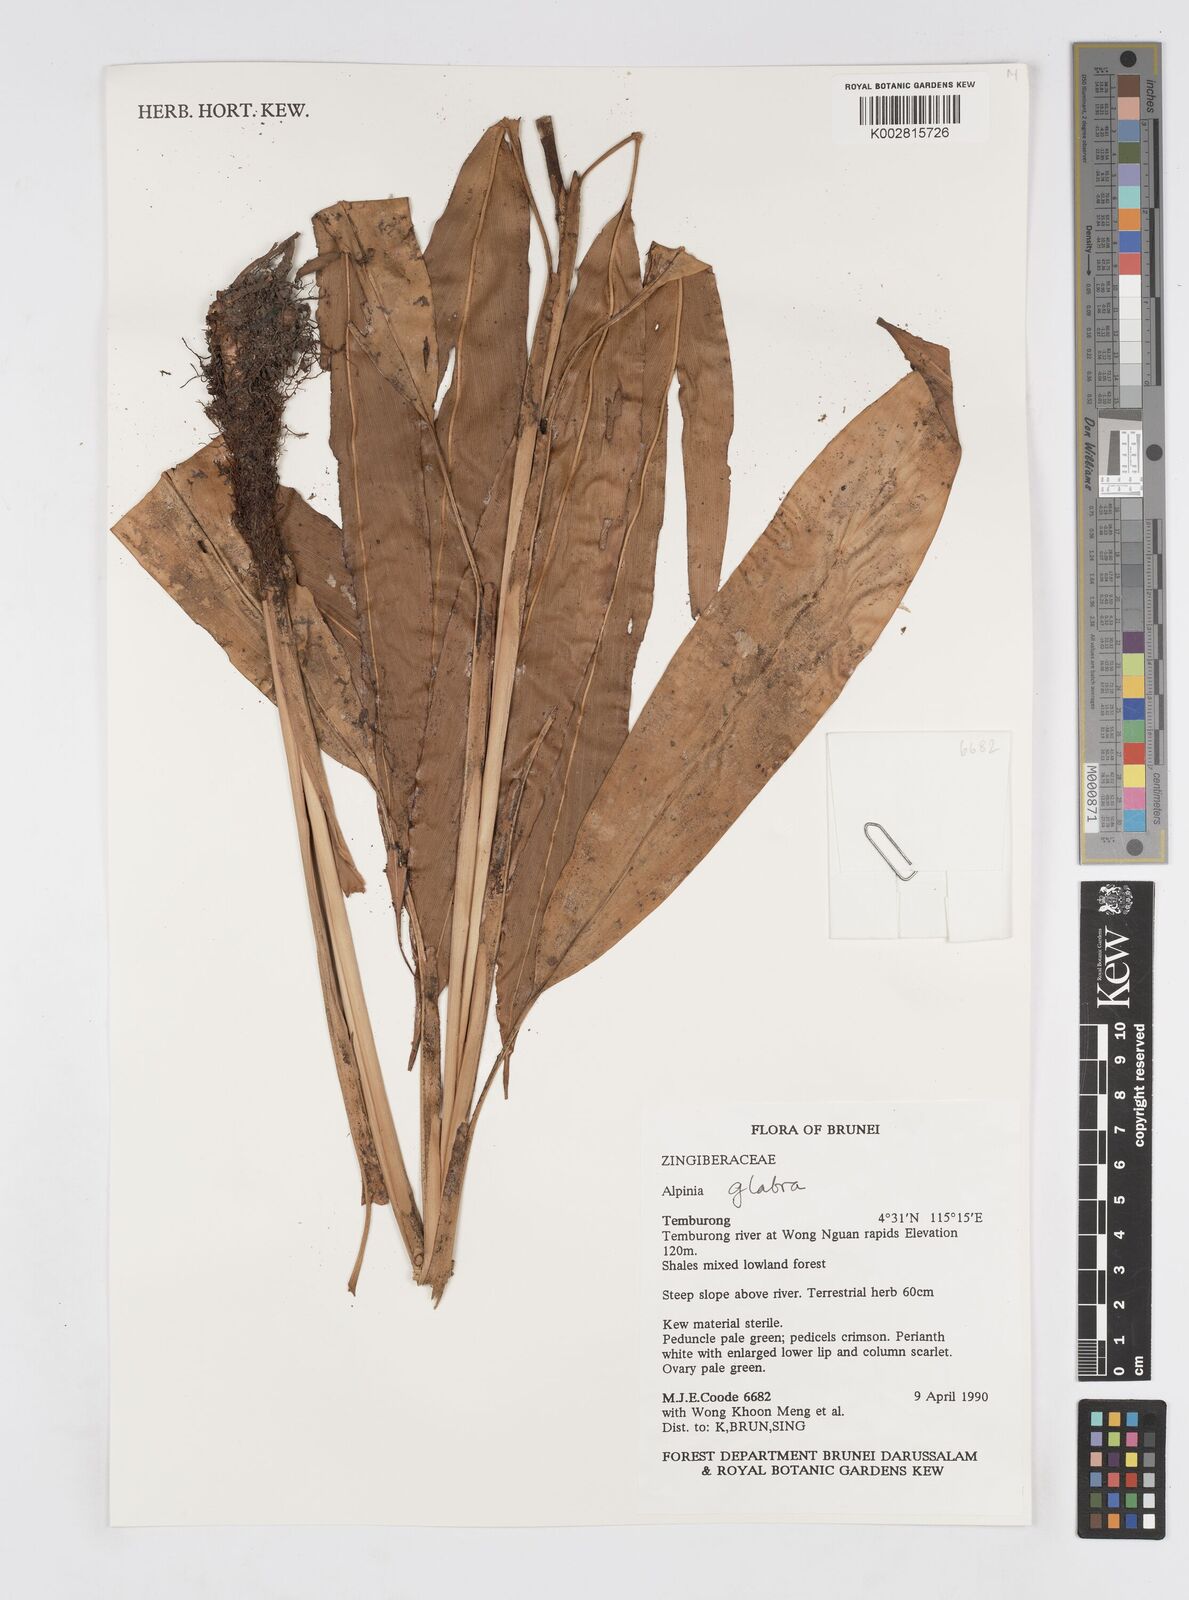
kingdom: Plantae
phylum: Tracheophyta
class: Liliopsida
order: Zingiberales
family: Zingiberaceae
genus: Alpinia
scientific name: Alpinia glabra
